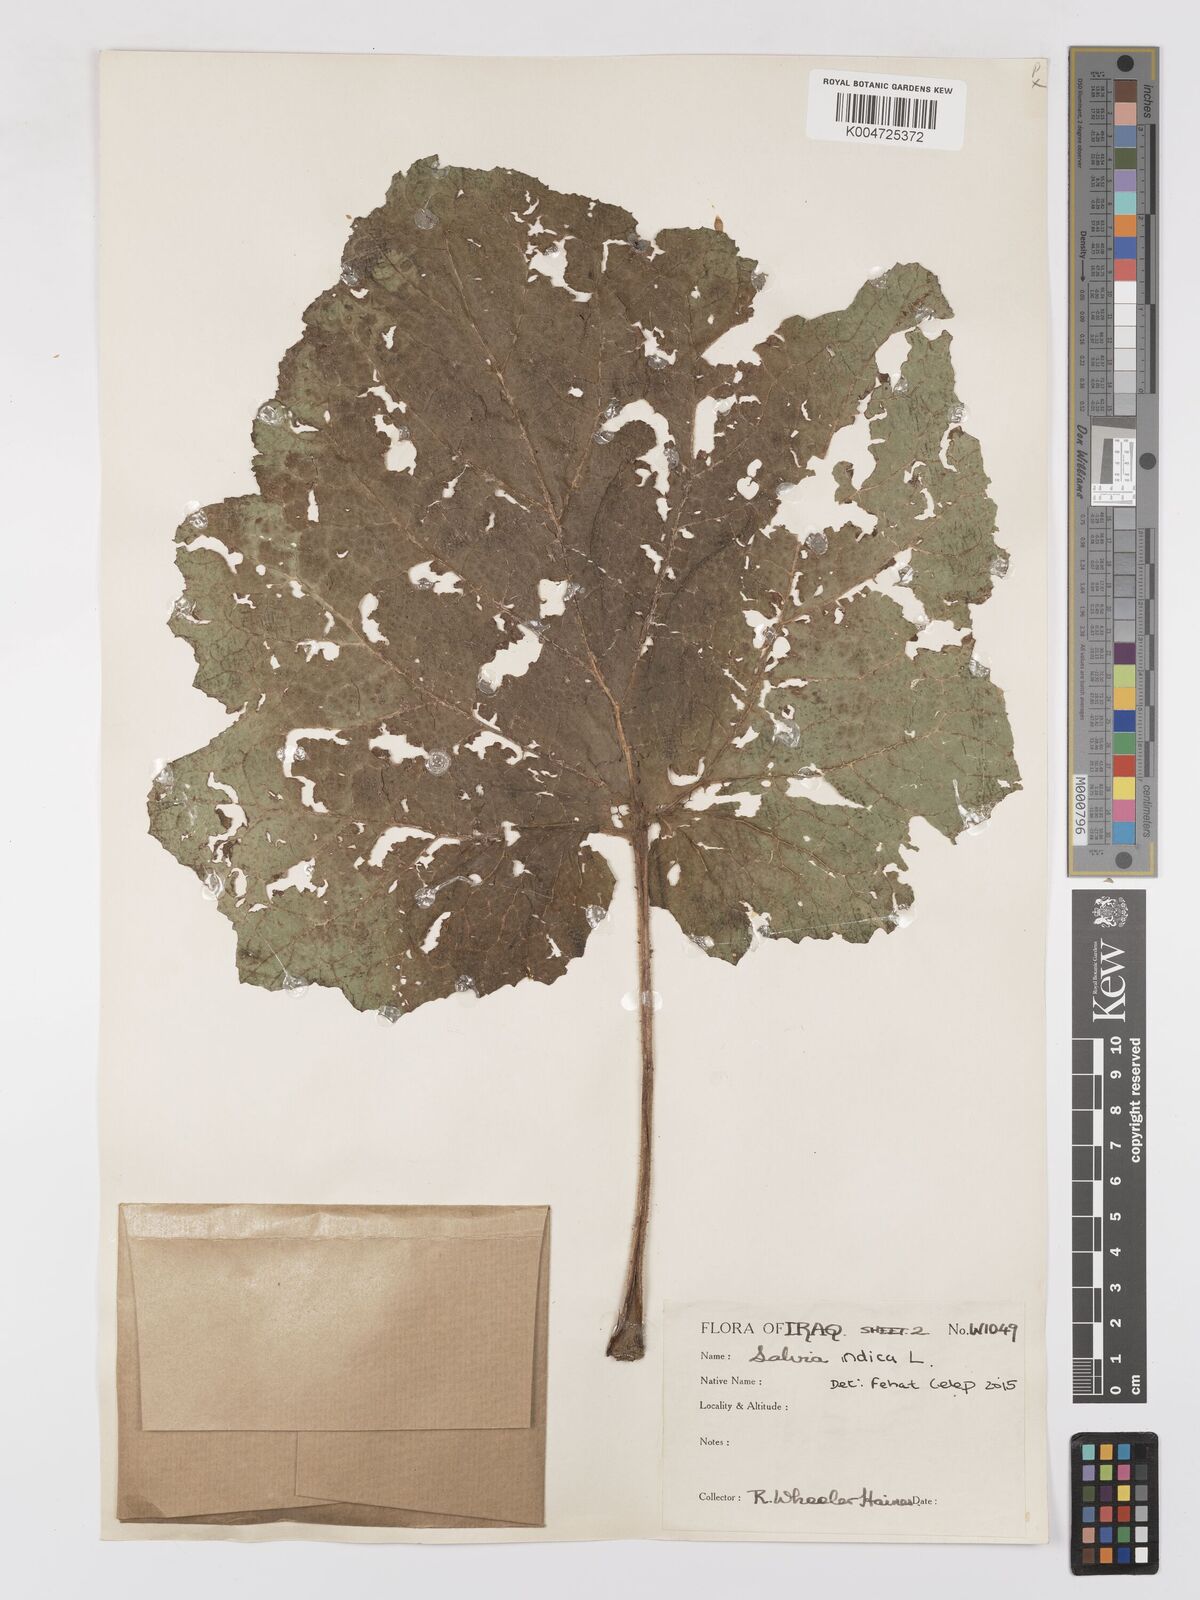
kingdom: Plantae
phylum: Tracheophyta
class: Magnoliopsida
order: Lamiales
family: Lamiaceae
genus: Salvia
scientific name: Salvia indica
